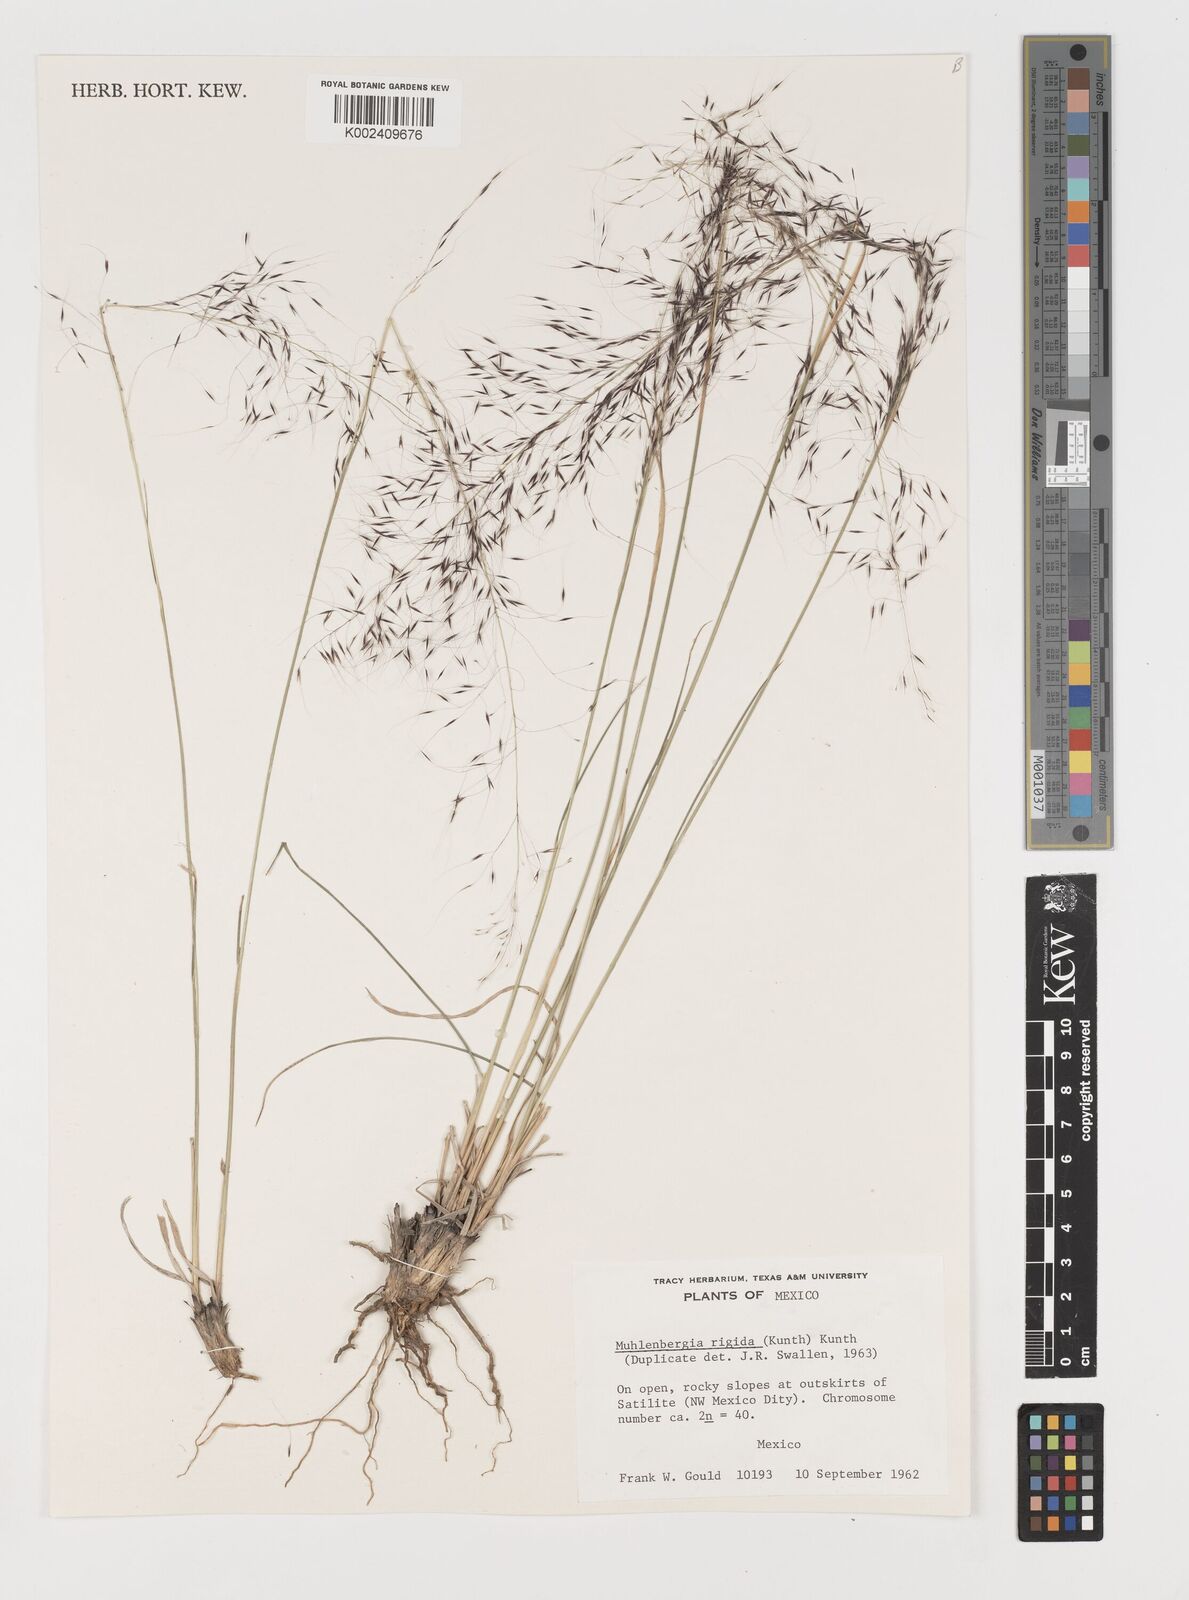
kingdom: Plantae
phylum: Tracheophyta
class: Liliopsida
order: Poales
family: Poaceae
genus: Muhlenbergia
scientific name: Muhlenbergia rigida
